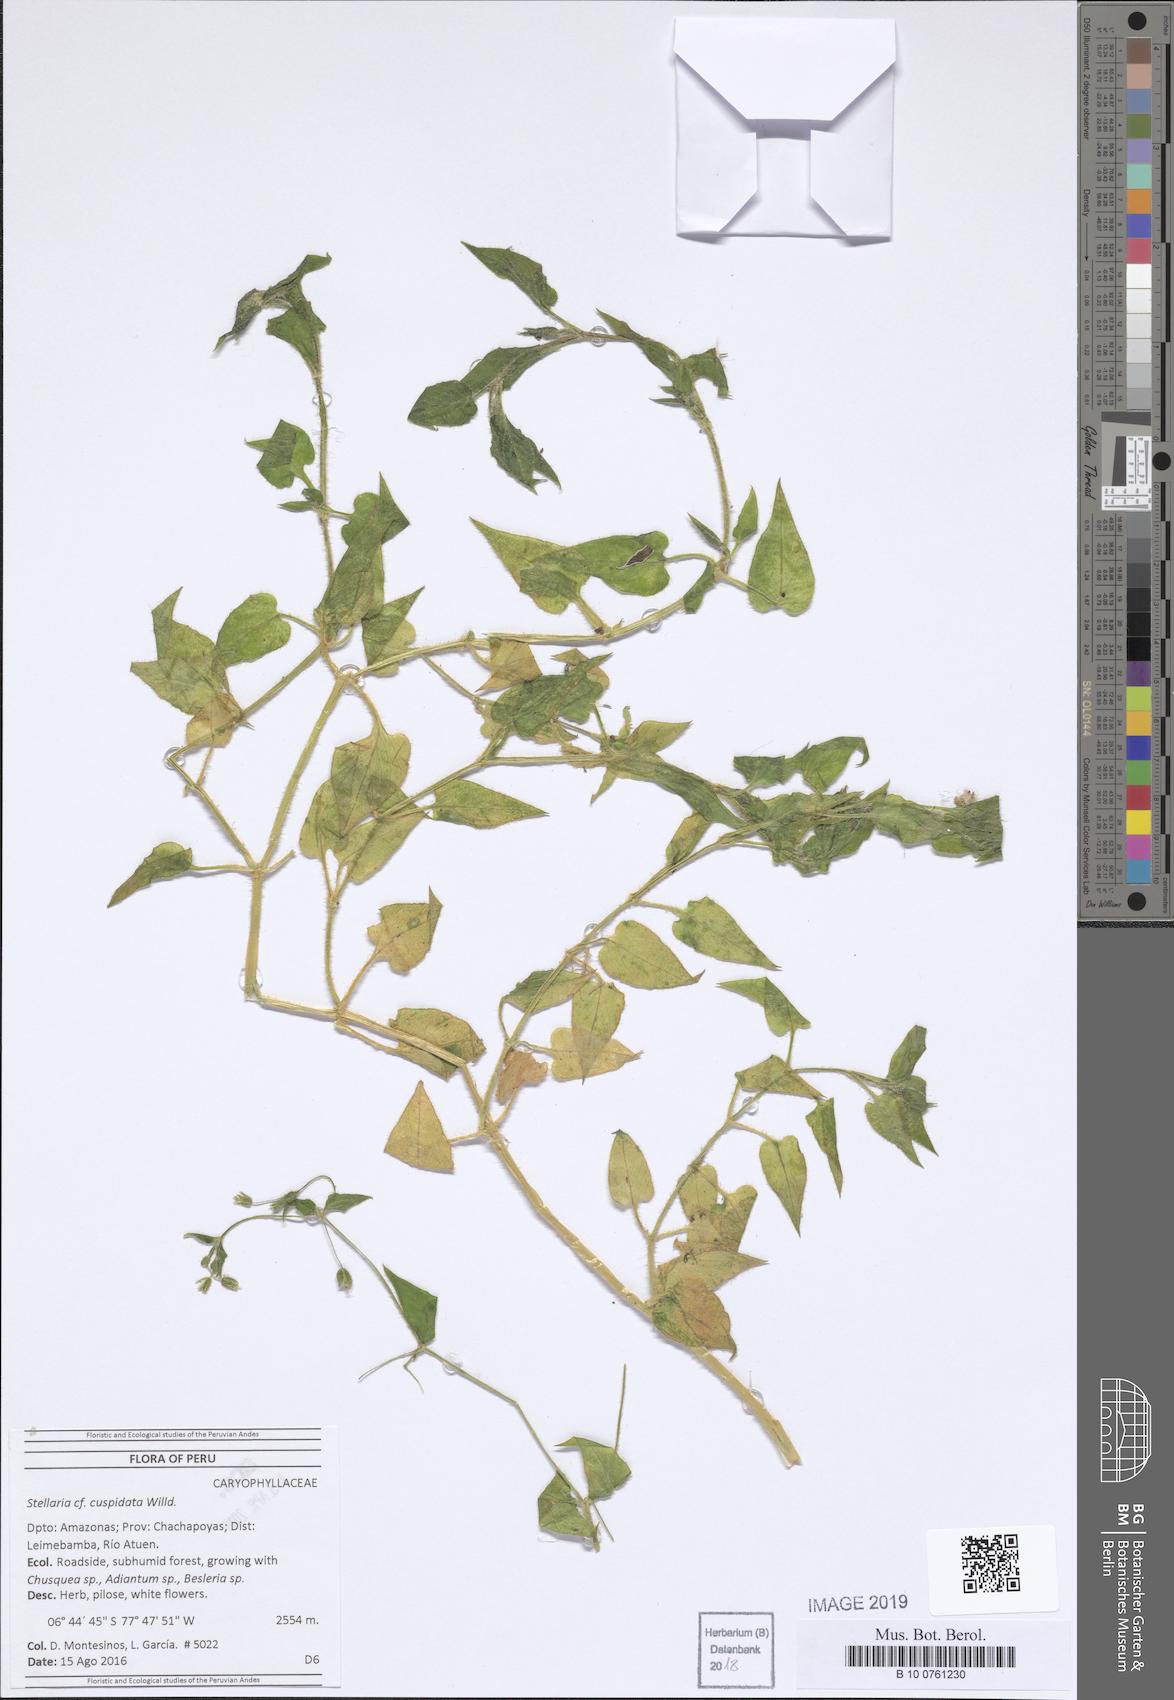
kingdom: Plantae
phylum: Tracheophyta
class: Magnoliopsida
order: Caryophyllales
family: Caryophyllaceae
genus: Stellaria
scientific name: Stellaria cuspidata
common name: Mexican chickweed
